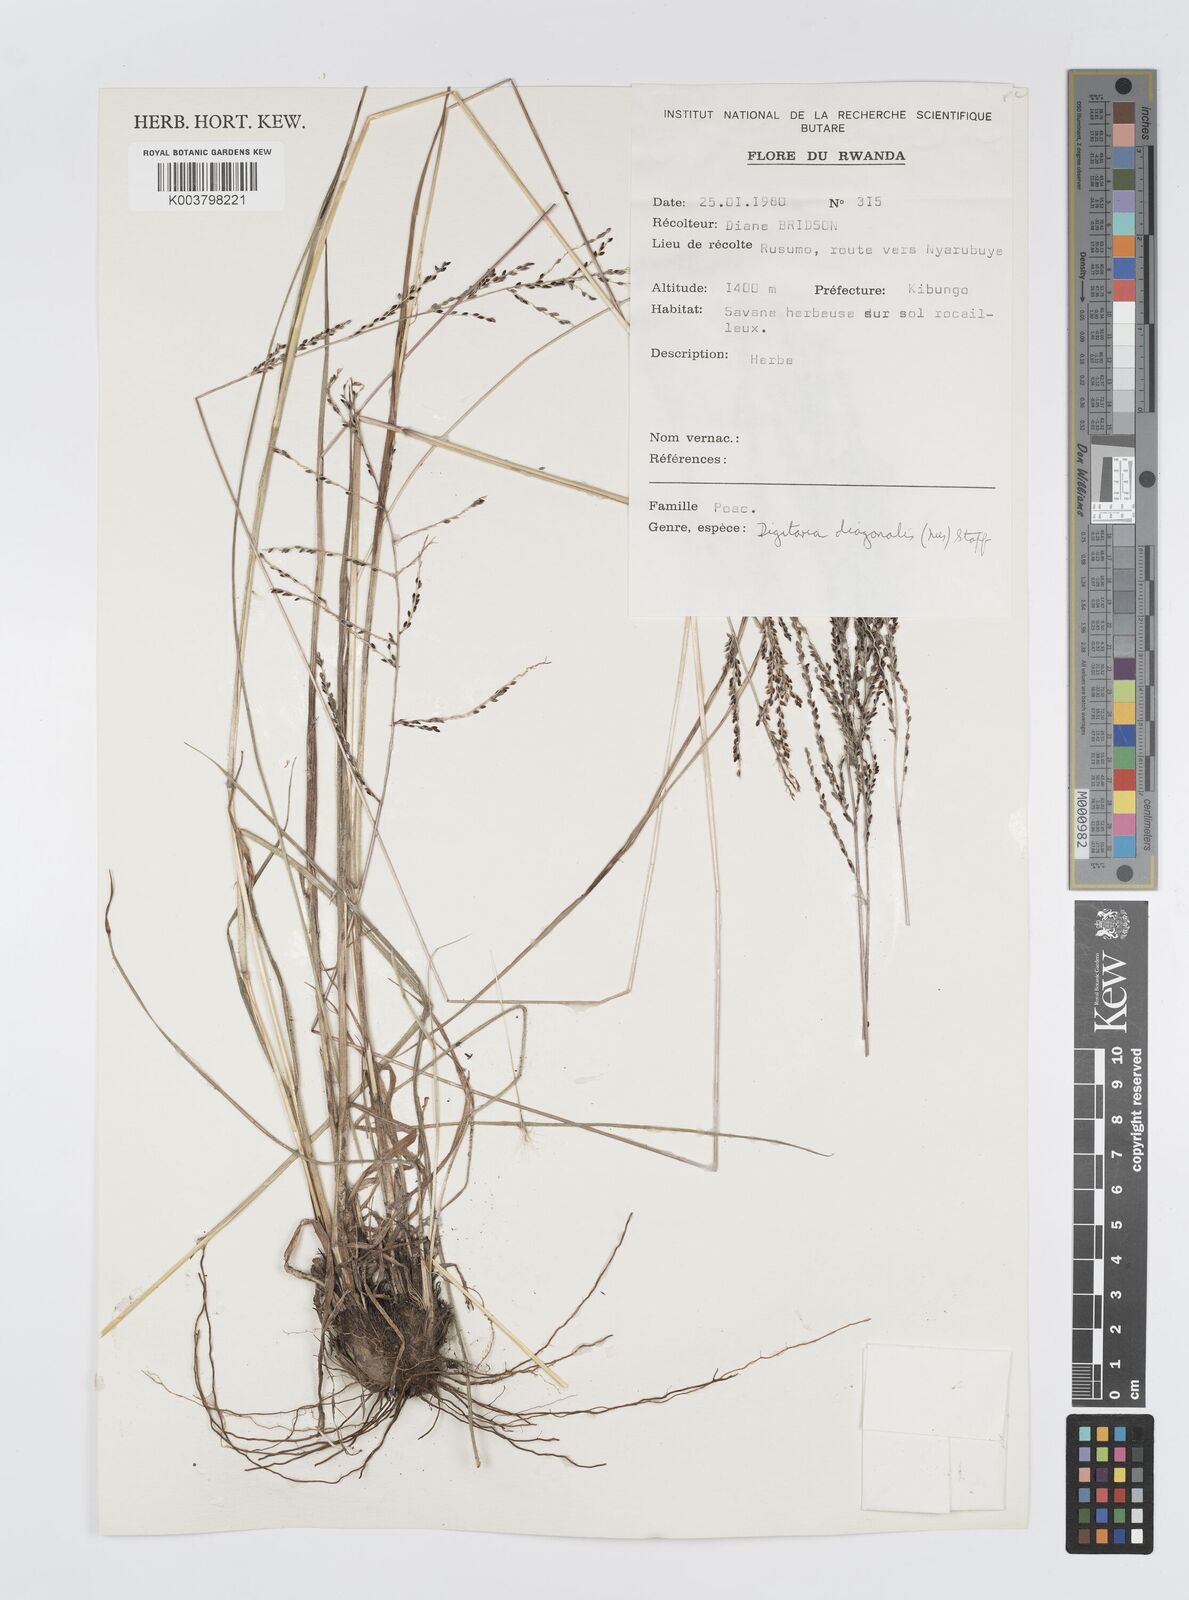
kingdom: Plantae
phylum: Tracheophyta
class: Liliopsida
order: Poales
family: Poaceae
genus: Digitaria
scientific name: Digitaria diagonalis
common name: Brown-seed finger grass
